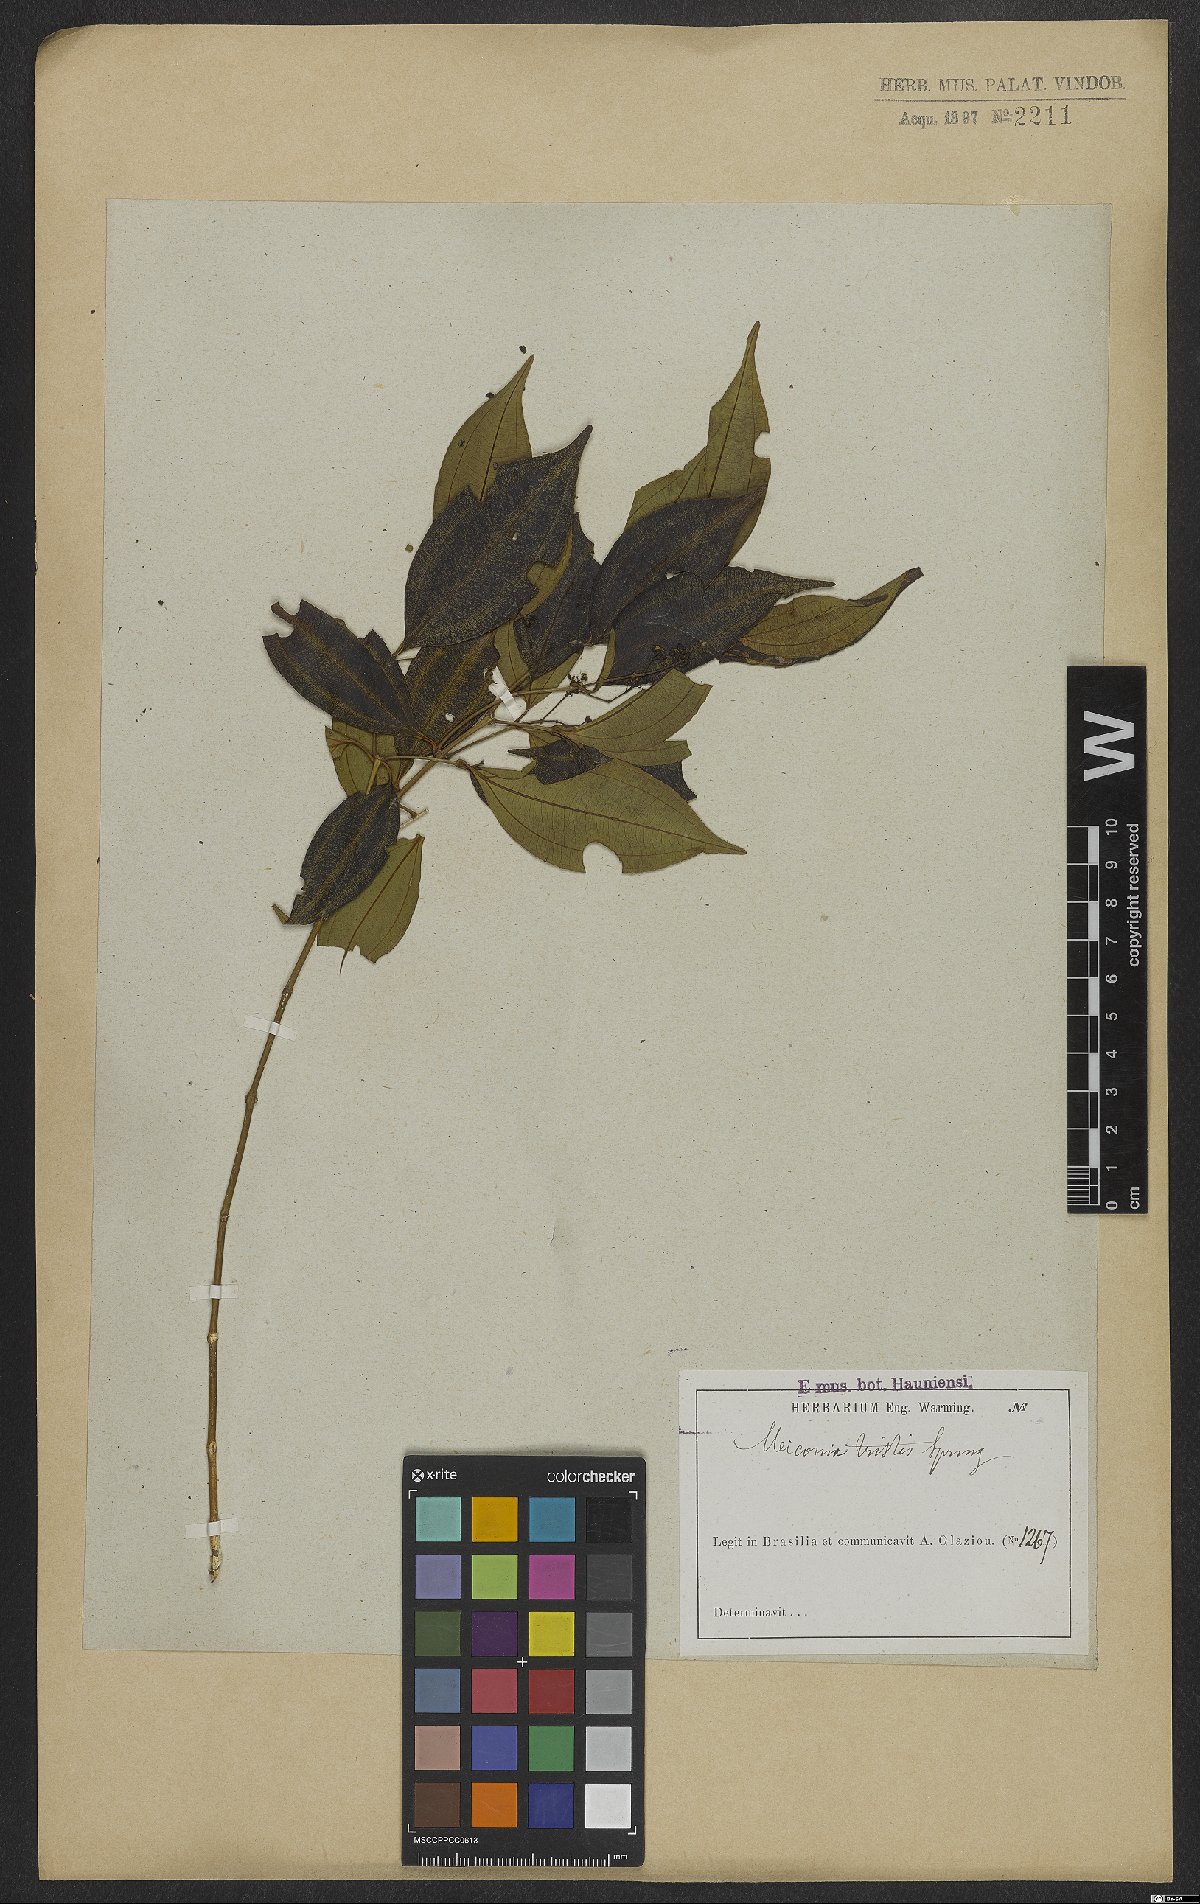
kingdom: Plantae
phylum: Tracheophyta
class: Magnoliopsida
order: Myrtales
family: Melastomataceae
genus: Miconia
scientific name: Miconia tristis
